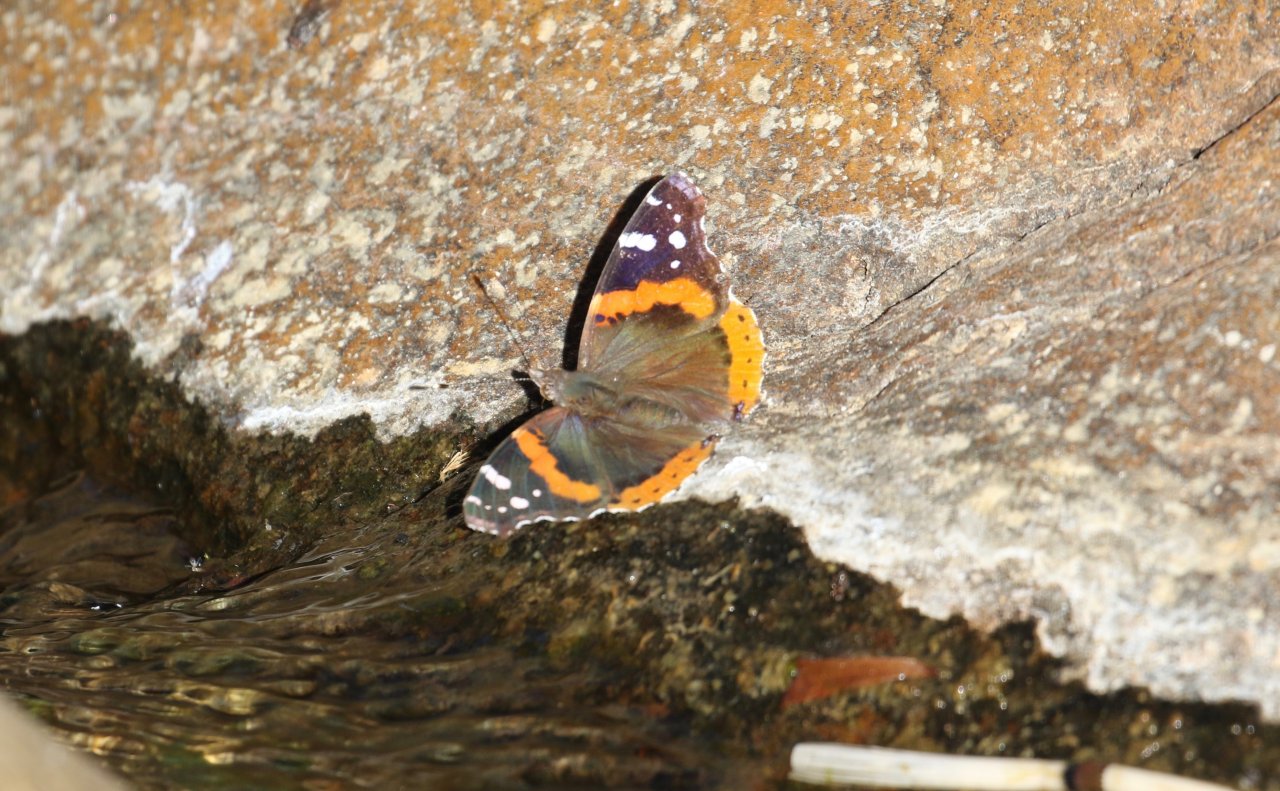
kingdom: Animalia
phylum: Arthropoda
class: Insecta
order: Lepidoptera
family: Nymphalidae
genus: Vanessa
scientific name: Vanessa atalanta
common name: Red Admiral
